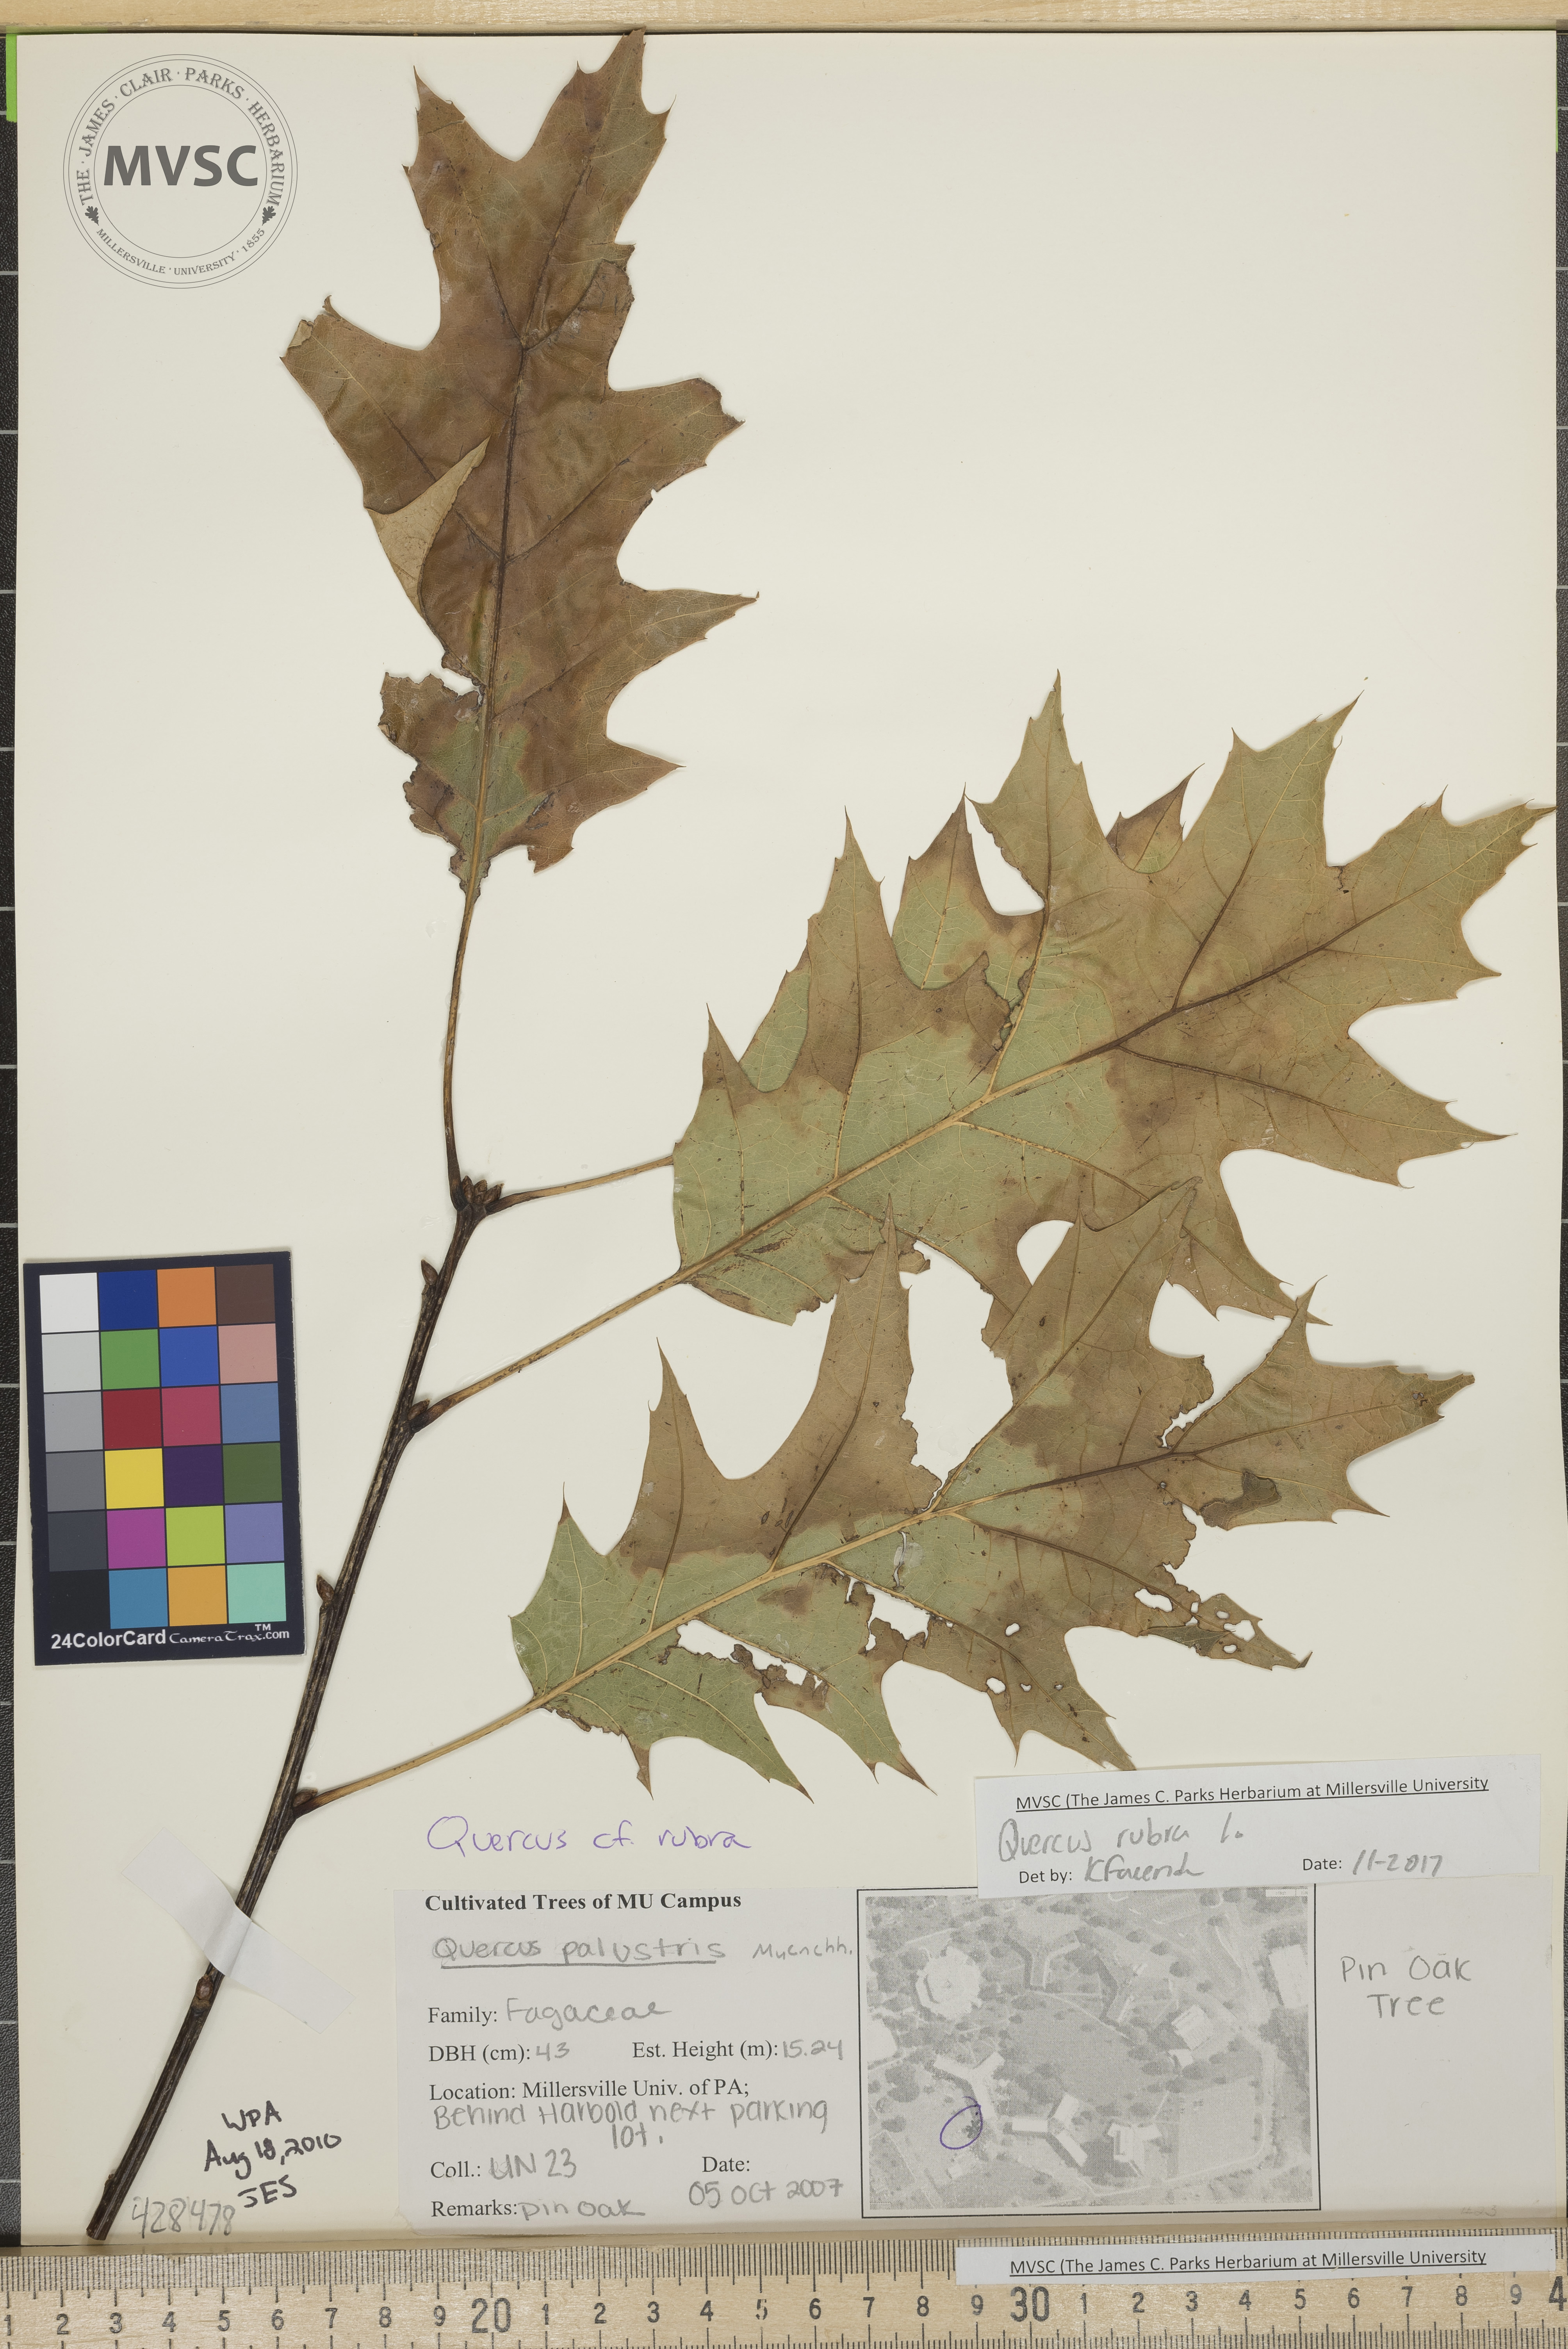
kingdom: Plantae
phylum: Tracheophyta
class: Magnoliopsida
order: Fagales
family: Fagaceae
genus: Quercus
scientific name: Quercus palustris
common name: Pin Oak
